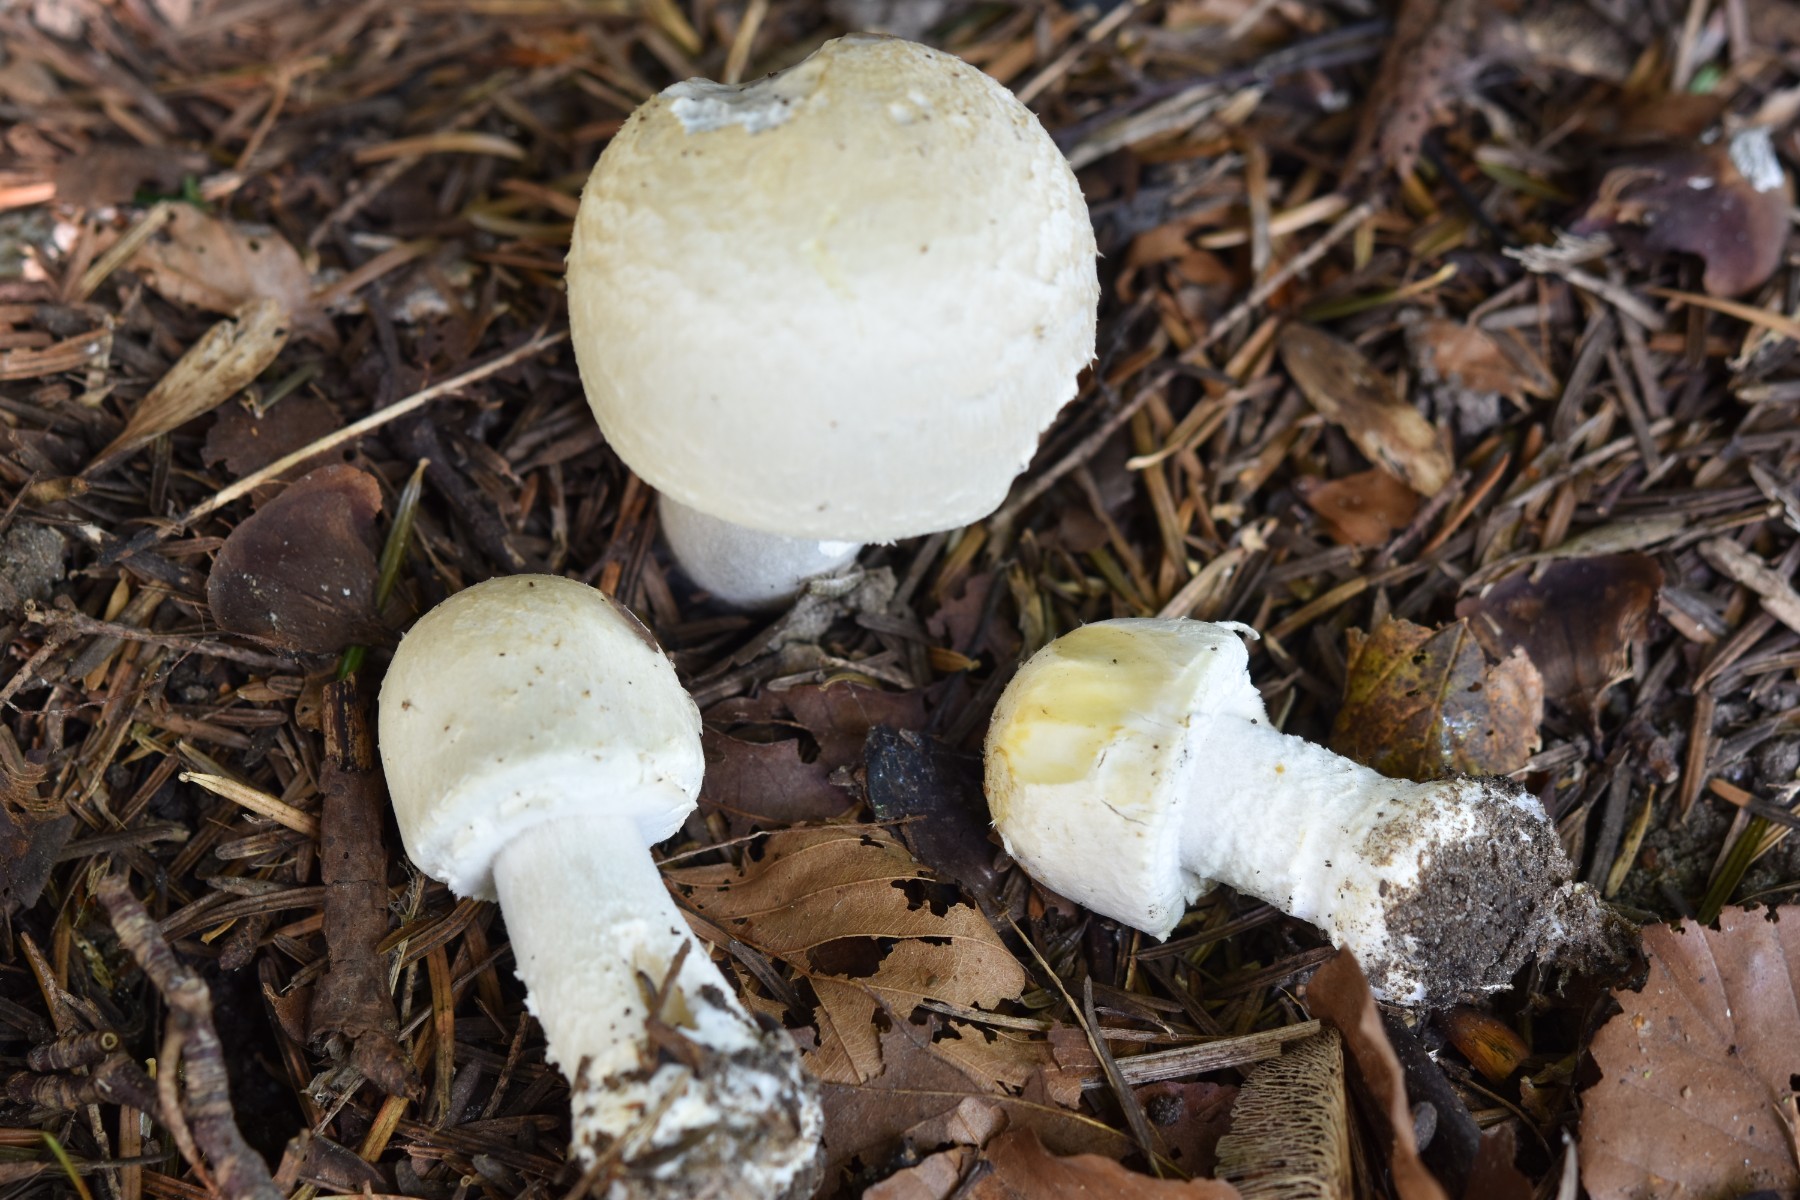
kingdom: Fungi
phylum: Basidiomycota
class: Agaricomycetes
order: Agaricales
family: Agaricaceae
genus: Agaricus
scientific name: Agaricus xanthodermus
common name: karbol-champignon
